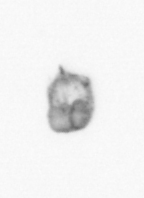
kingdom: Animalia
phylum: Arthropoda
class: Copepoda
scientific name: Copepoda
